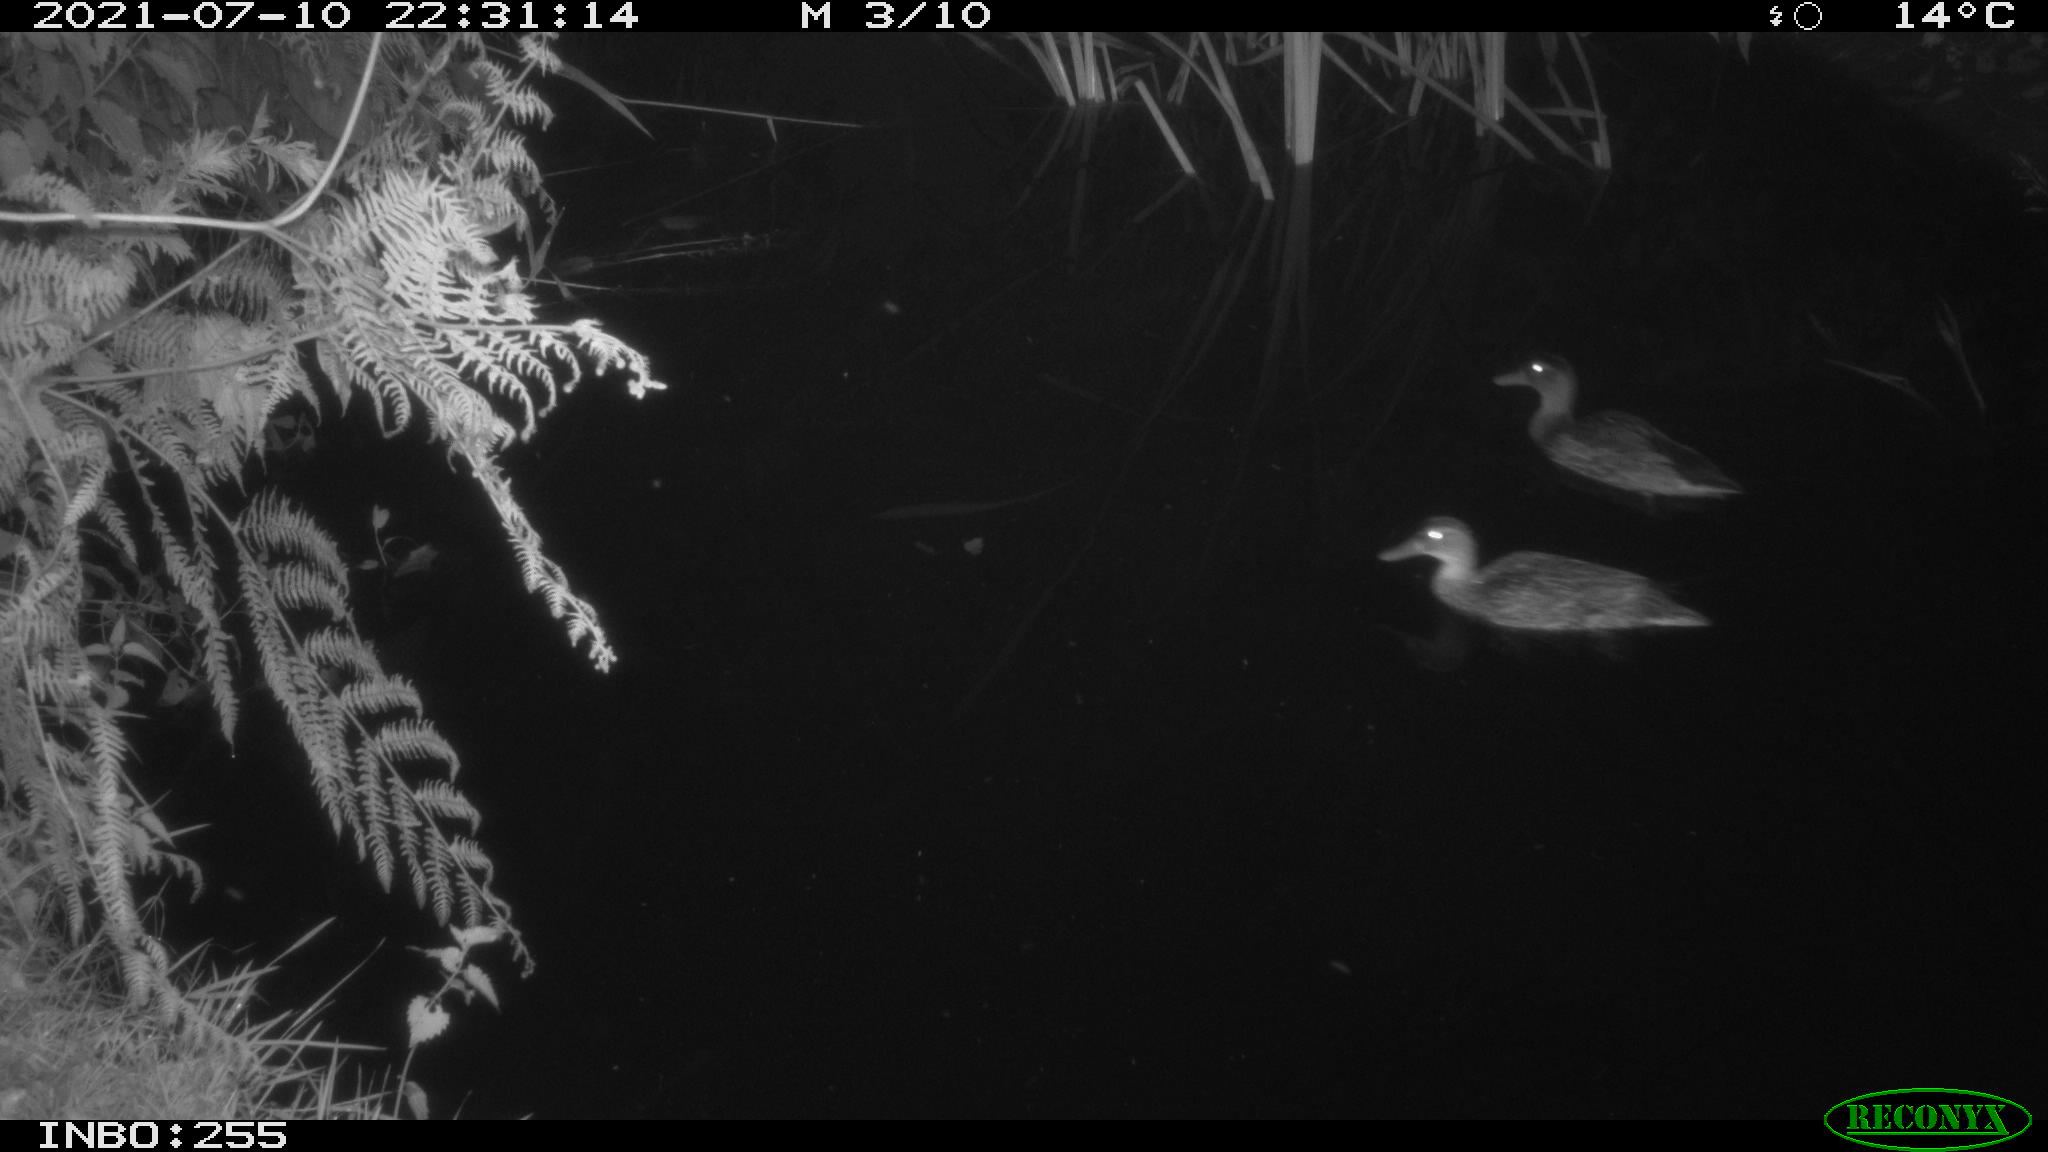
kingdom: Animalia
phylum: Chordata
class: Aves
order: Anseriformes
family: Anatidae
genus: Anas
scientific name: Anas platyrhynchos
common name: Mallard
